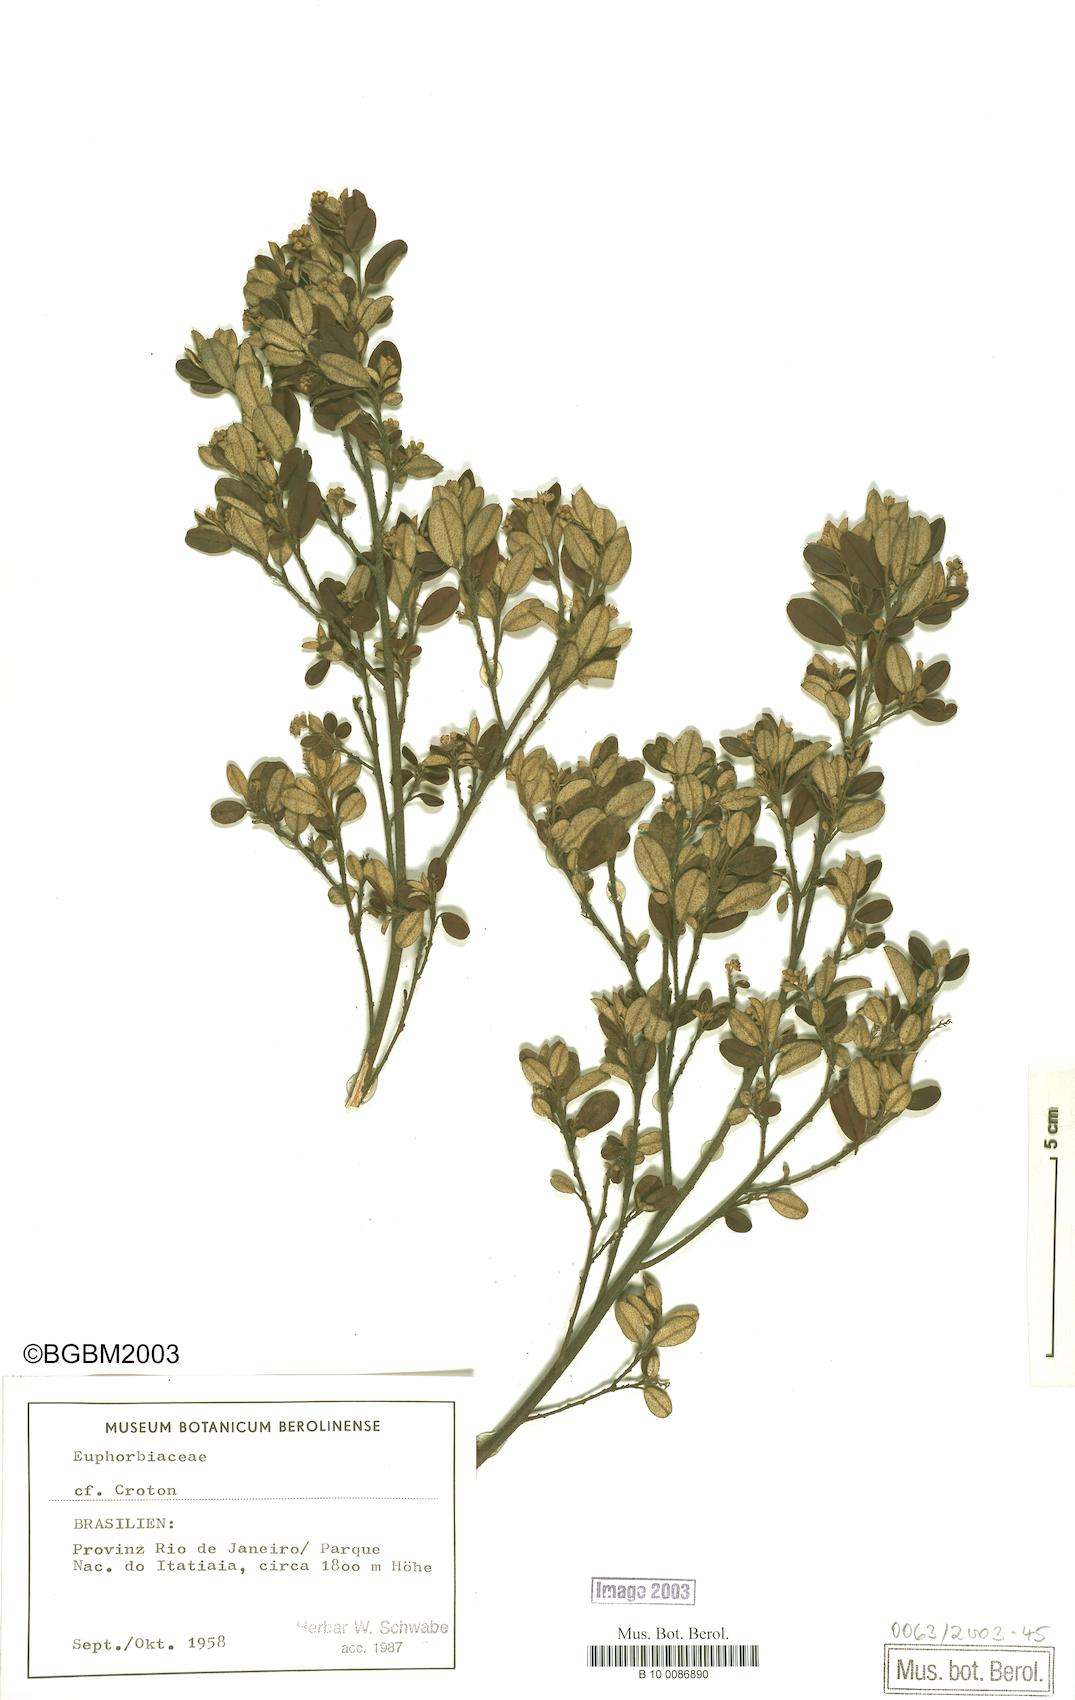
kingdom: Plantae
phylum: Tracheophyta
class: Magnoliopsida
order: Malpighiales
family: Euphorbiaceae
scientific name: Euphorbiaceae
